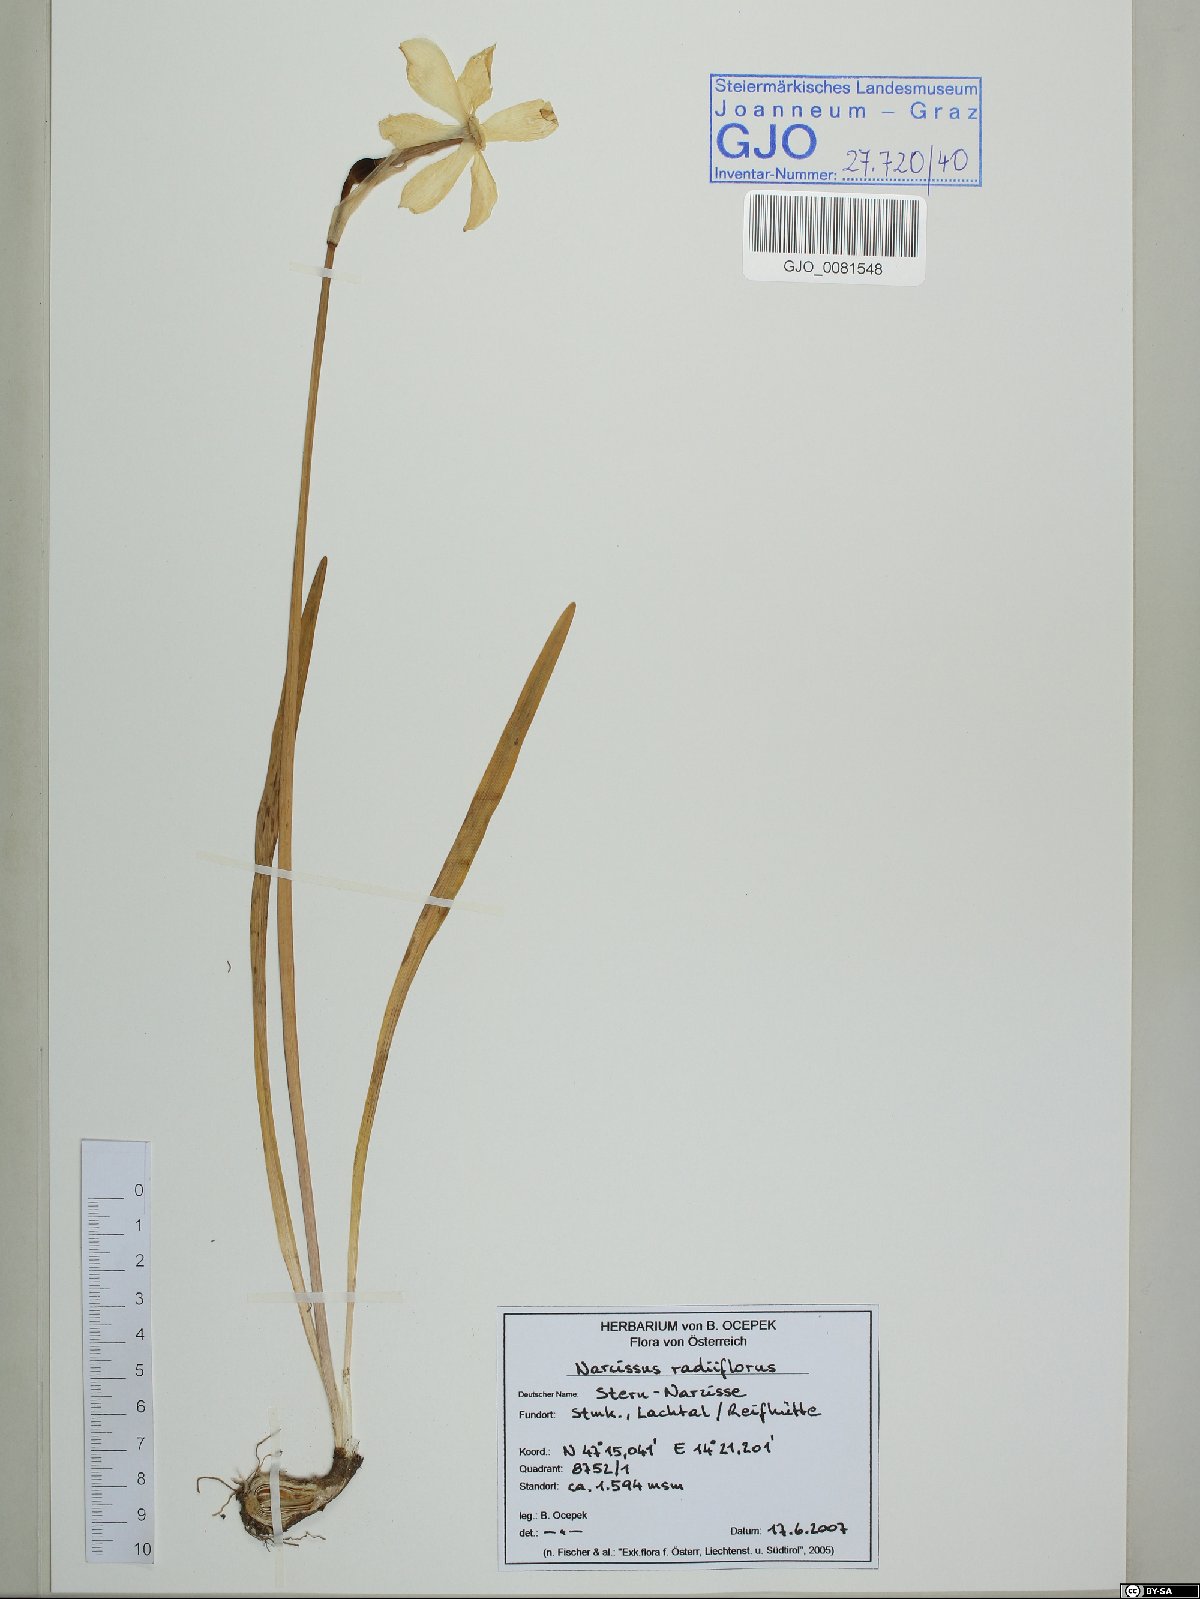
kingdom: Plantae
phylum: Tracheophyta
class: Liliopsida
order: Asparagales
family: Amaryllidaceae
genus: Narcissus
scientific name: Narcissus poeticus
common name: Pheasant's-eye daffodil
